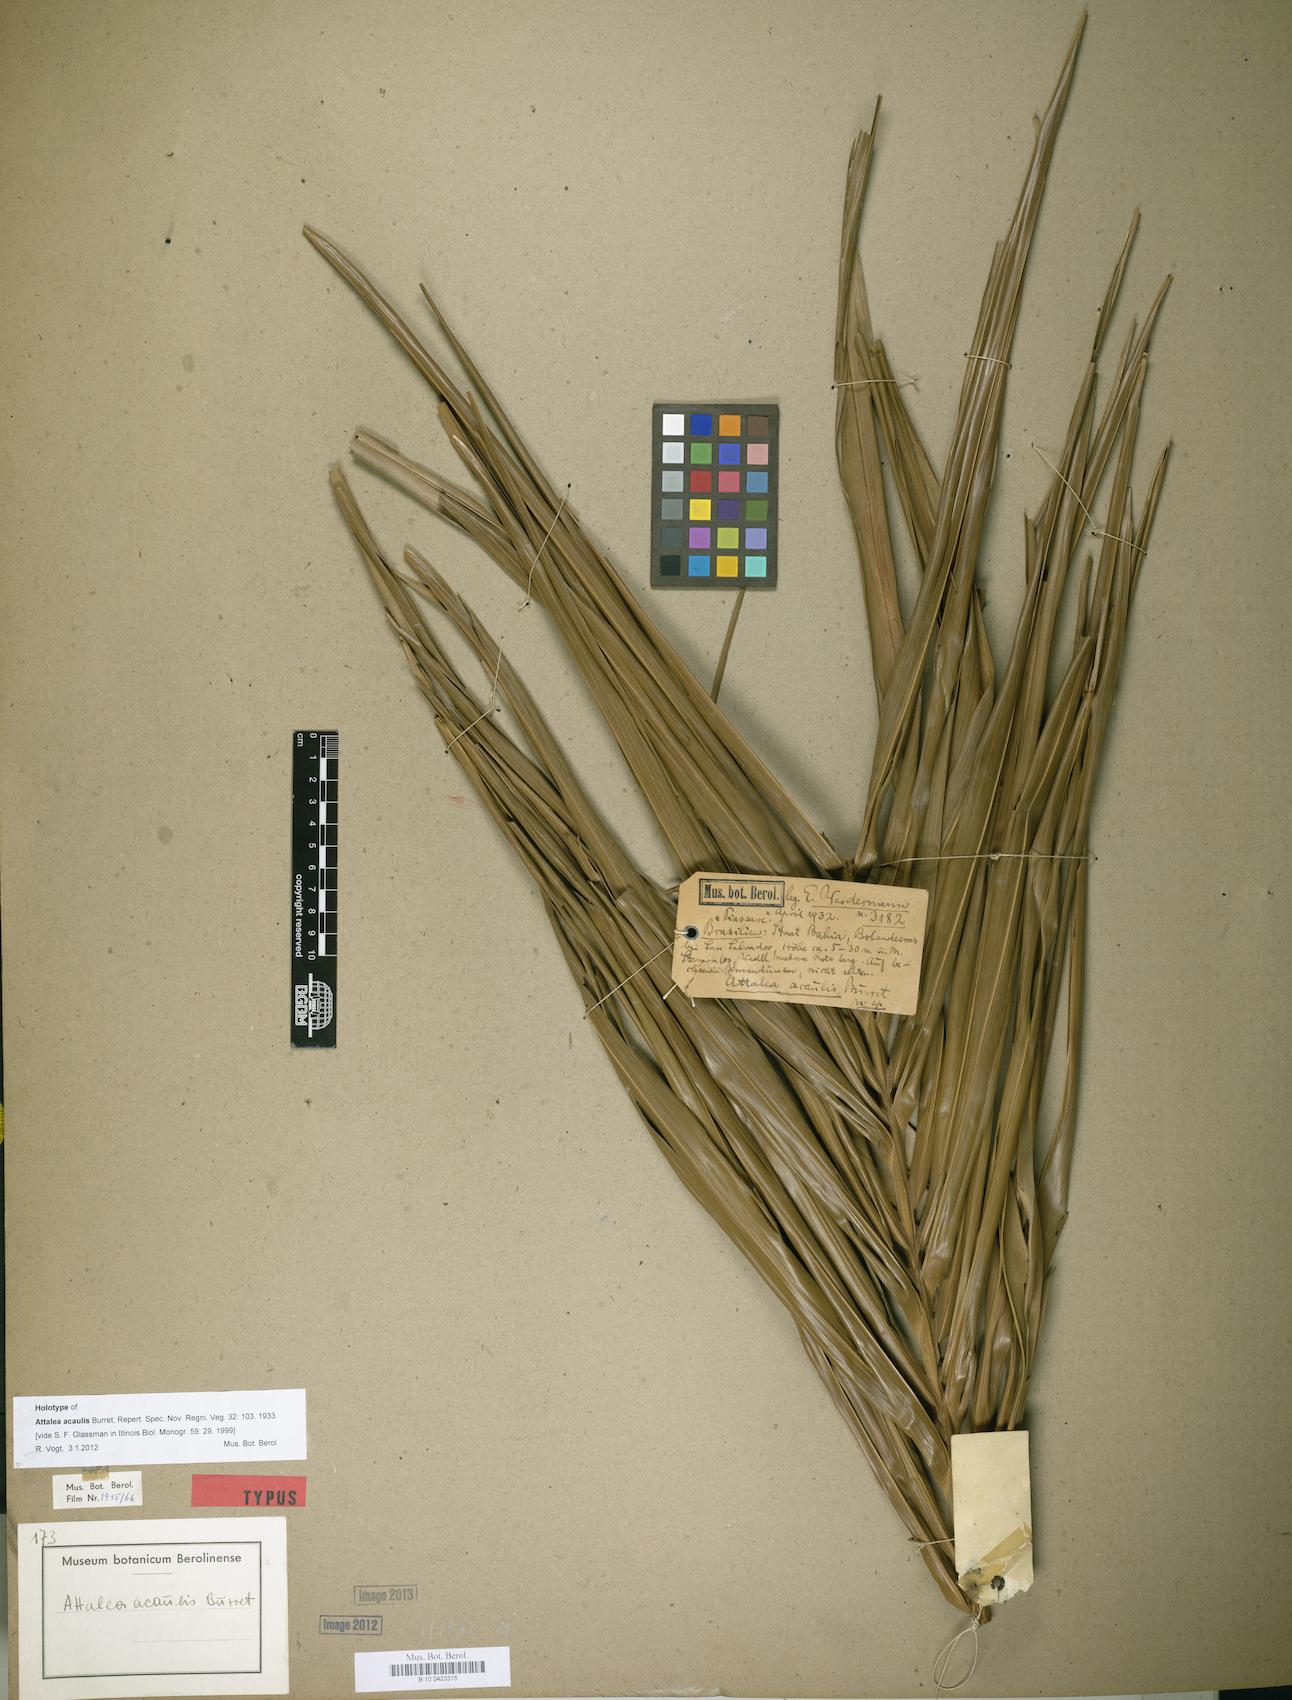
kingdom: Plantae
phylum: Tracheophyta
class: Liliopsida
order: Arecales
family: Arecaceae
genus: Attalea
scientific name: Attalea funifera
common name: Piassava palm
